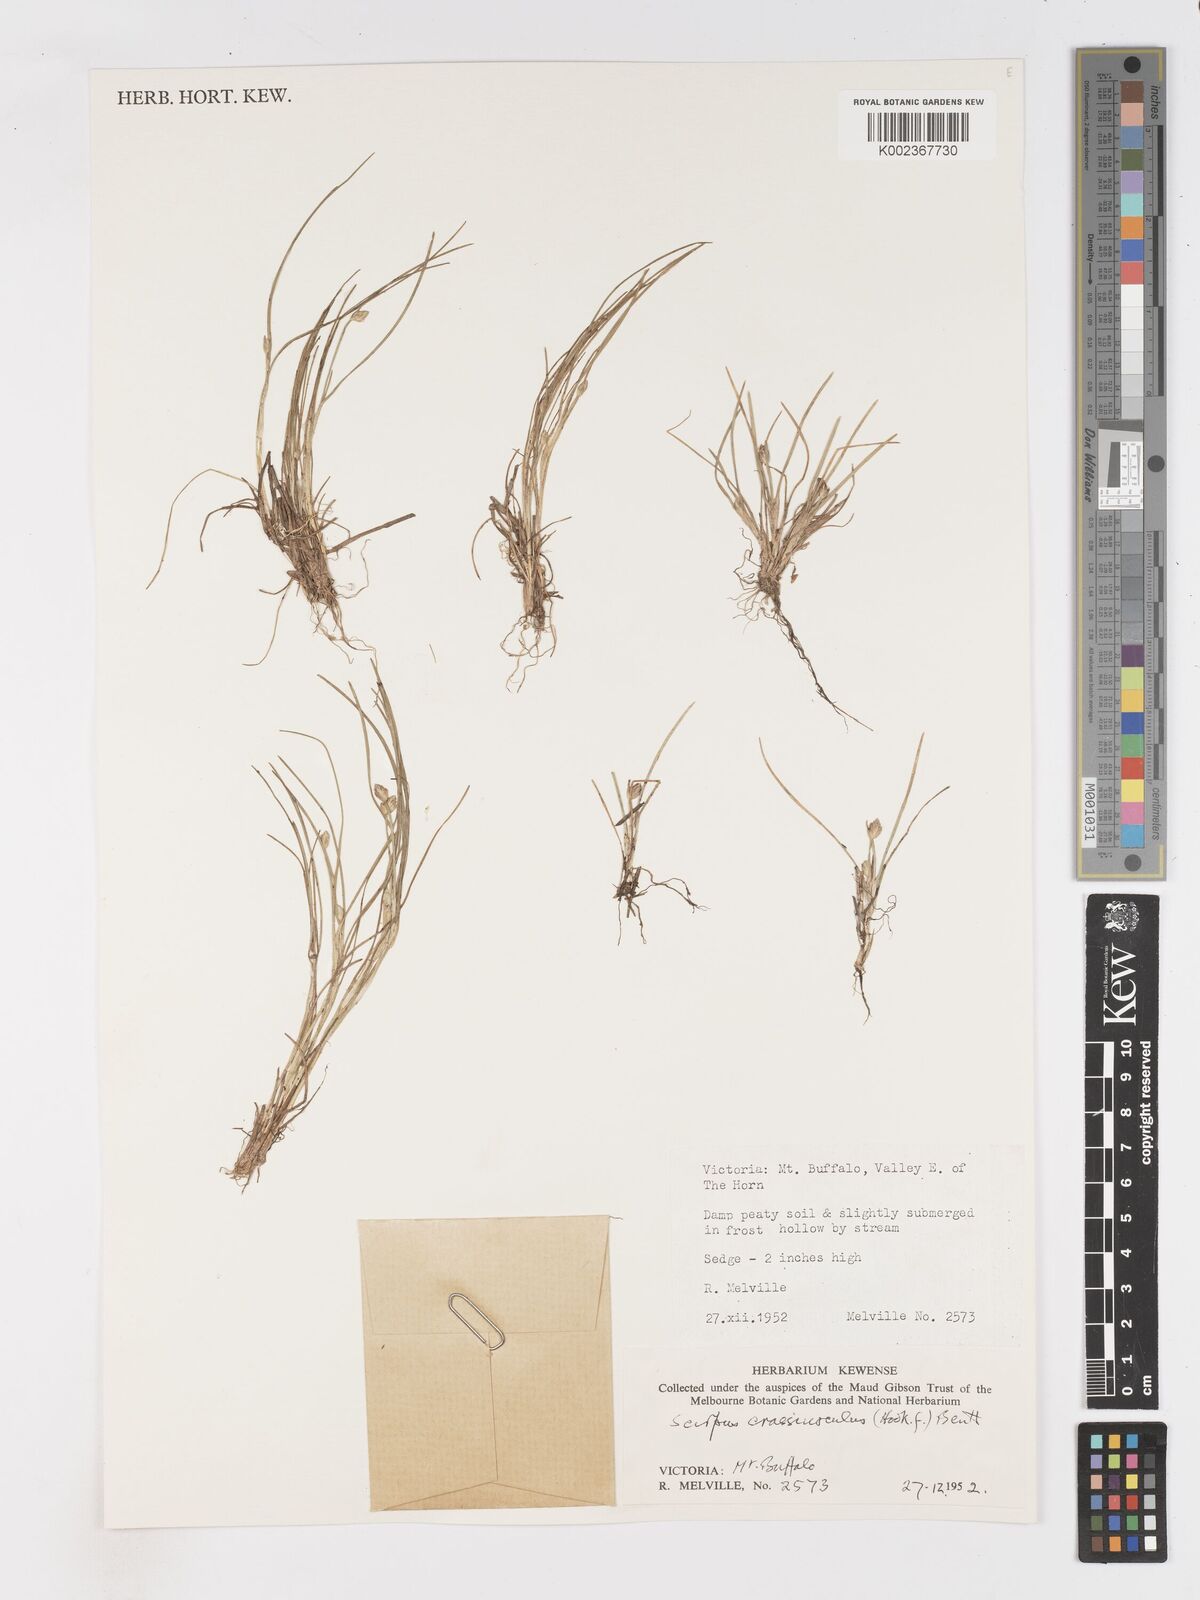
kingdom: Plantae
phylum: Tracheophyta
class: Liliopsida
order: Poales
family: Cyperaceae
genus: Isolepis
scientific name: Isolepis crassiuscula
